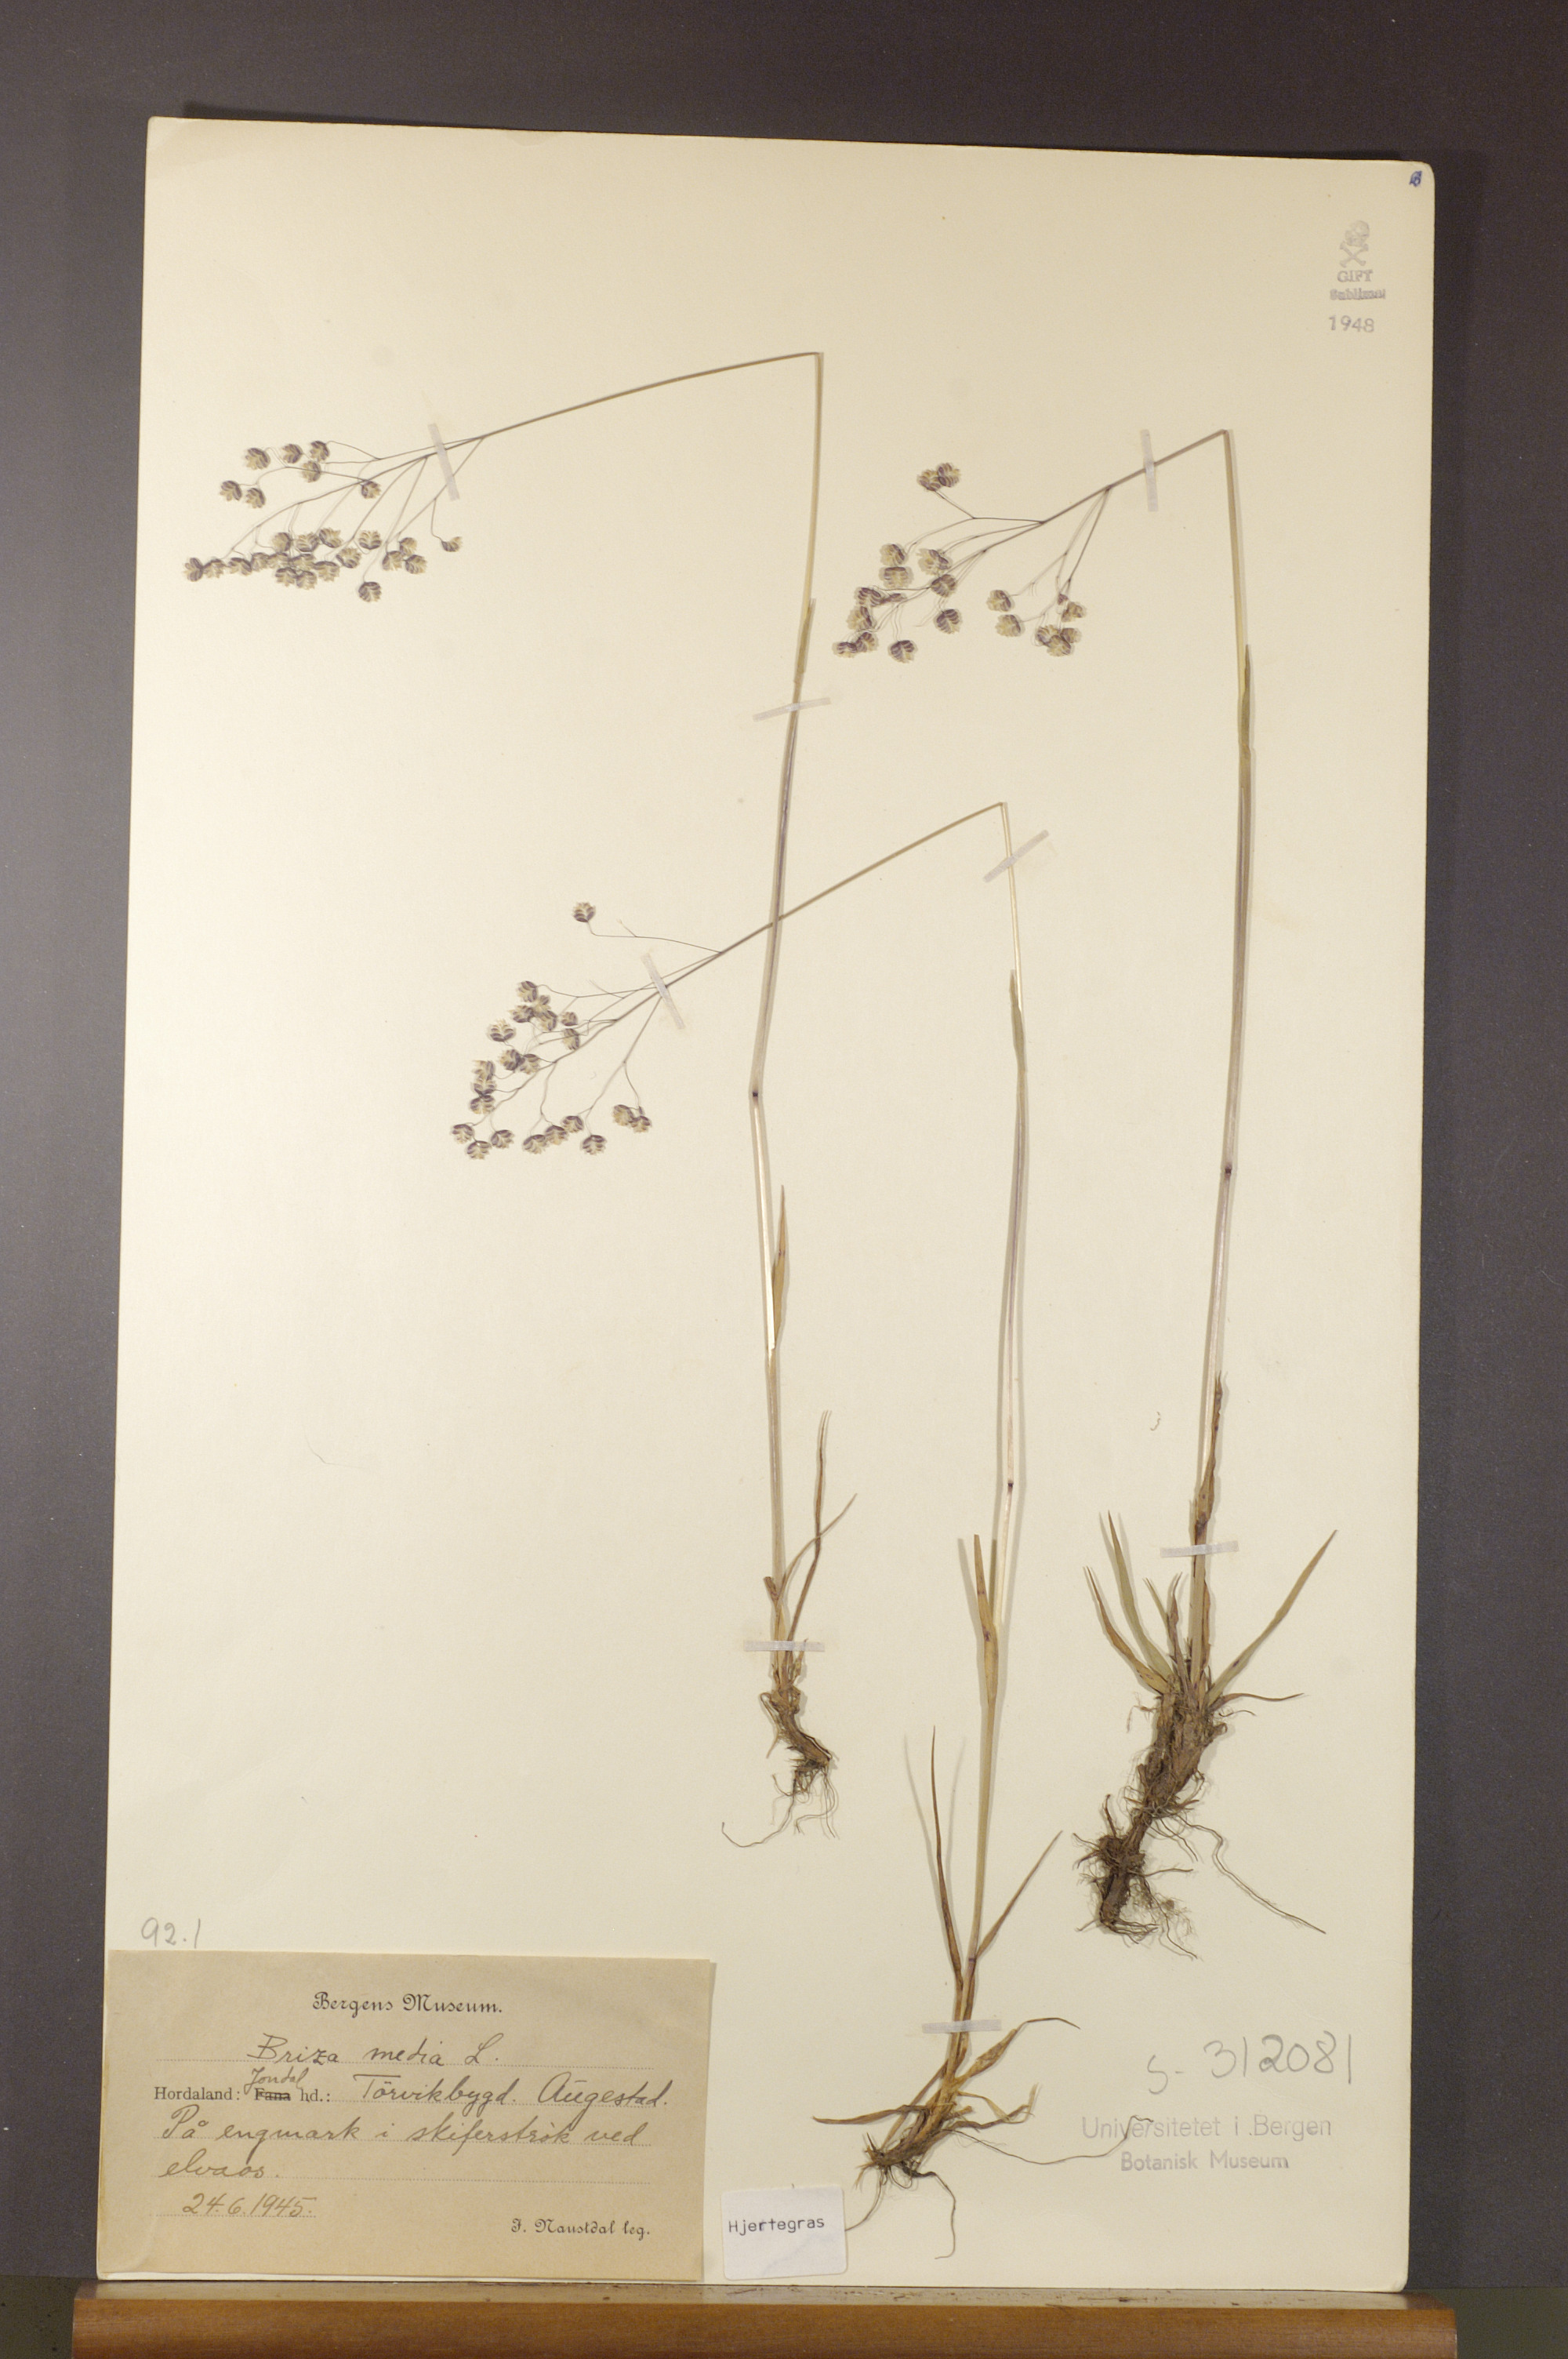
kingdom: Plantae
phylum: Tracheophyta
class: Liliopsida
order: Poales
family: Poaceae
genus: Briza
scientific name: Briza media
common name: Quaking grass
